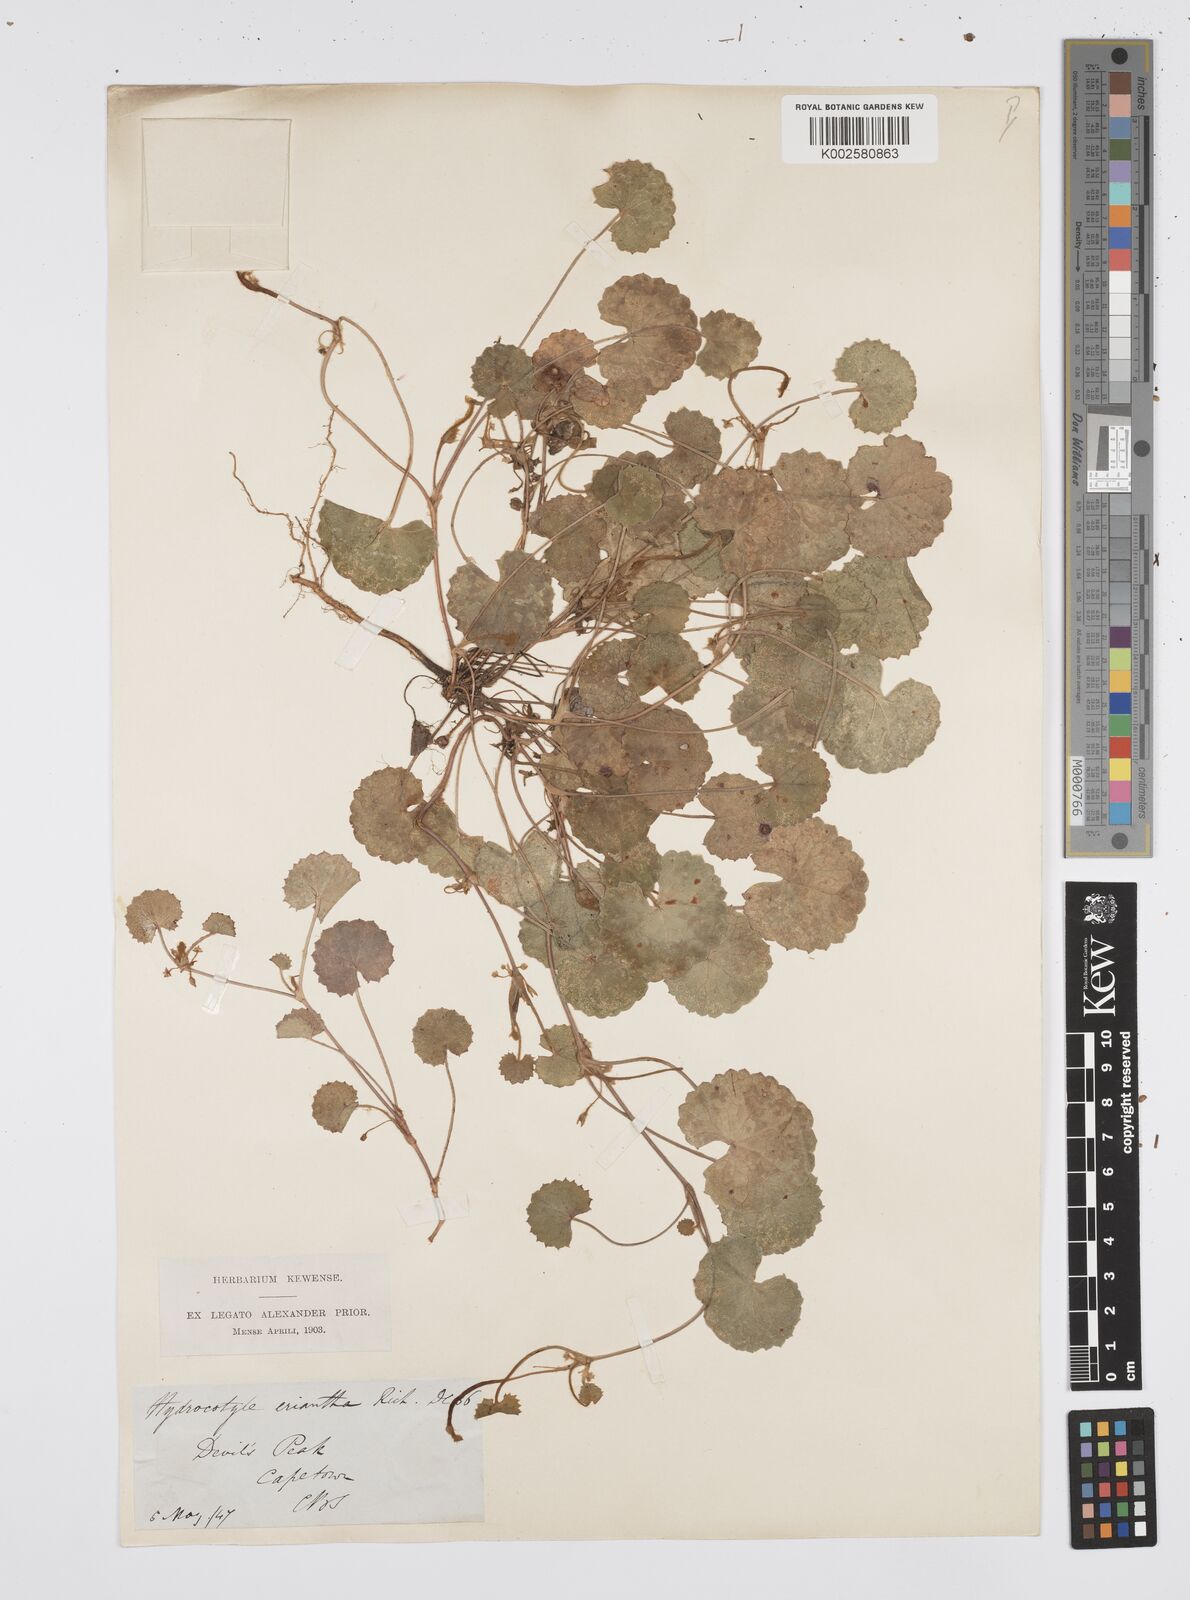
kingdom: Plantae
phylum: Tracheophyta
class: Magnoliopsida
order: Apiales
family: Apiaceae
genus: Centella
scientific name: Centella eriantha
